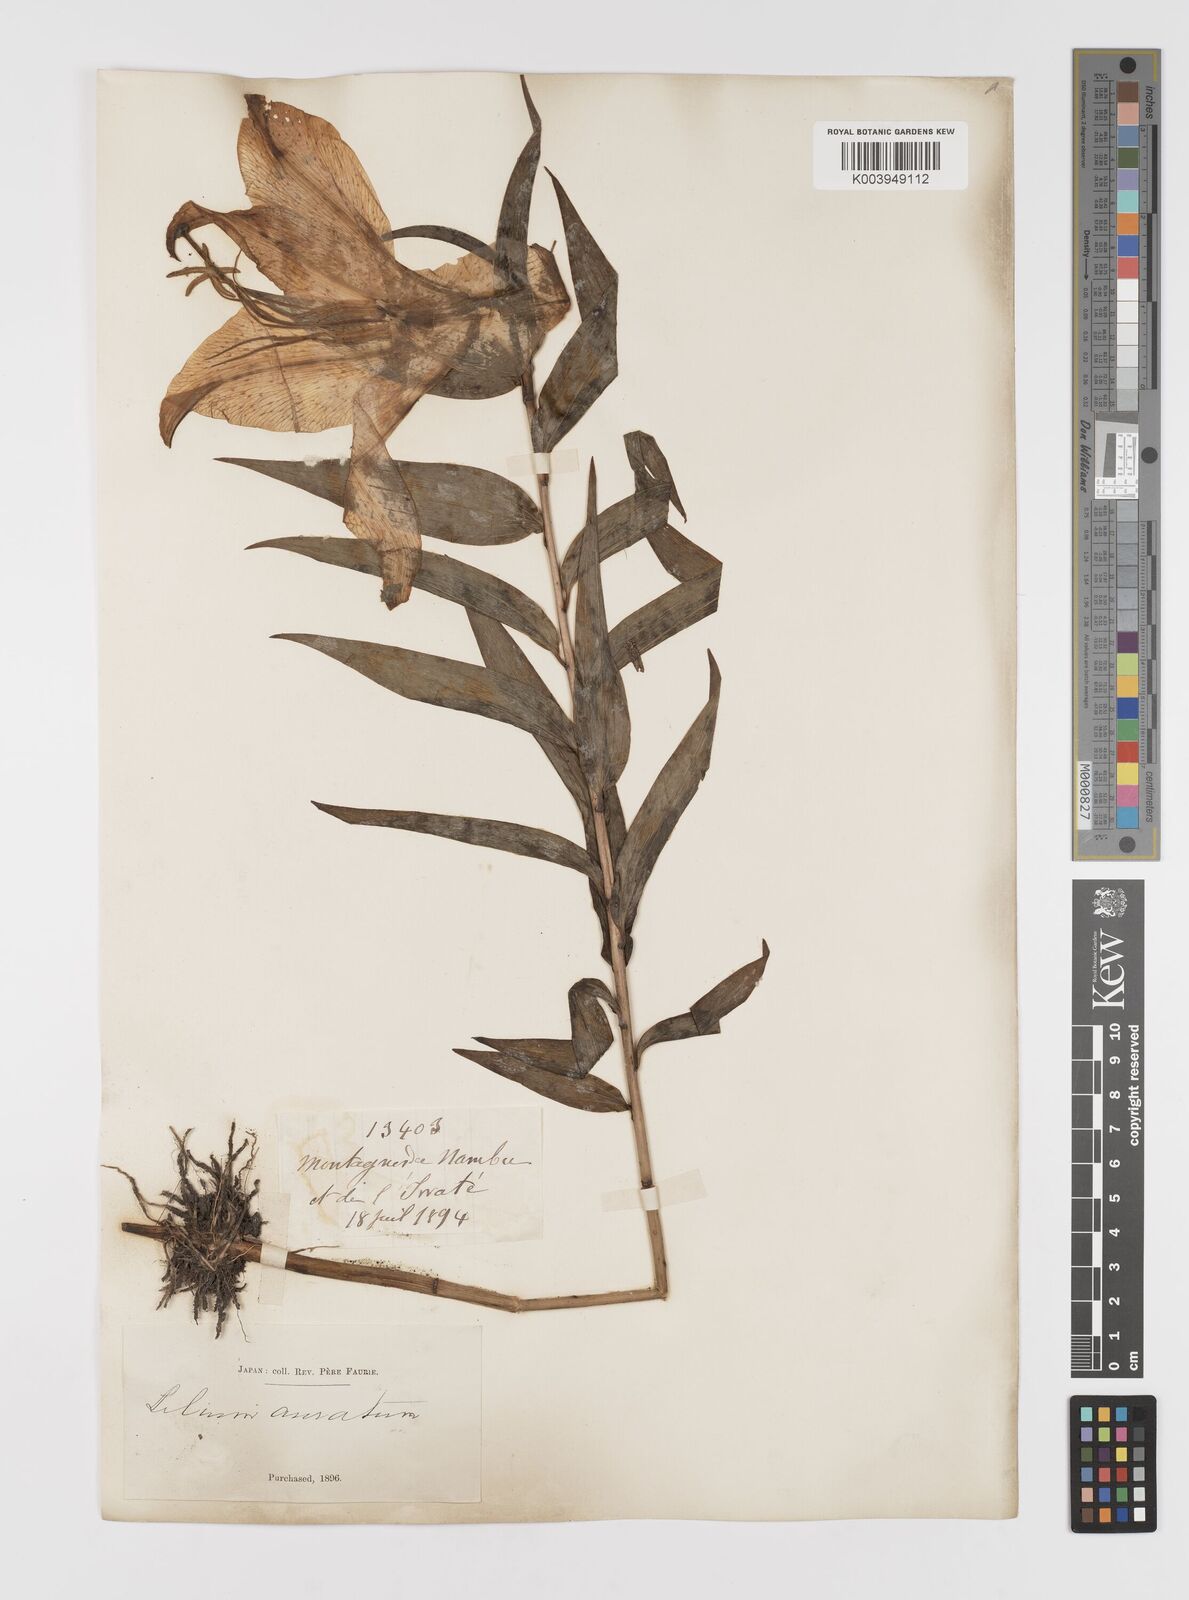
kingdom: Plantae
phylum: Tracheophyta
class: Liliopsida
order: Liliales
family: Liliaceae
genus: Lilium
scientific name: Lilium auratum
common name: Golden-ray lily
